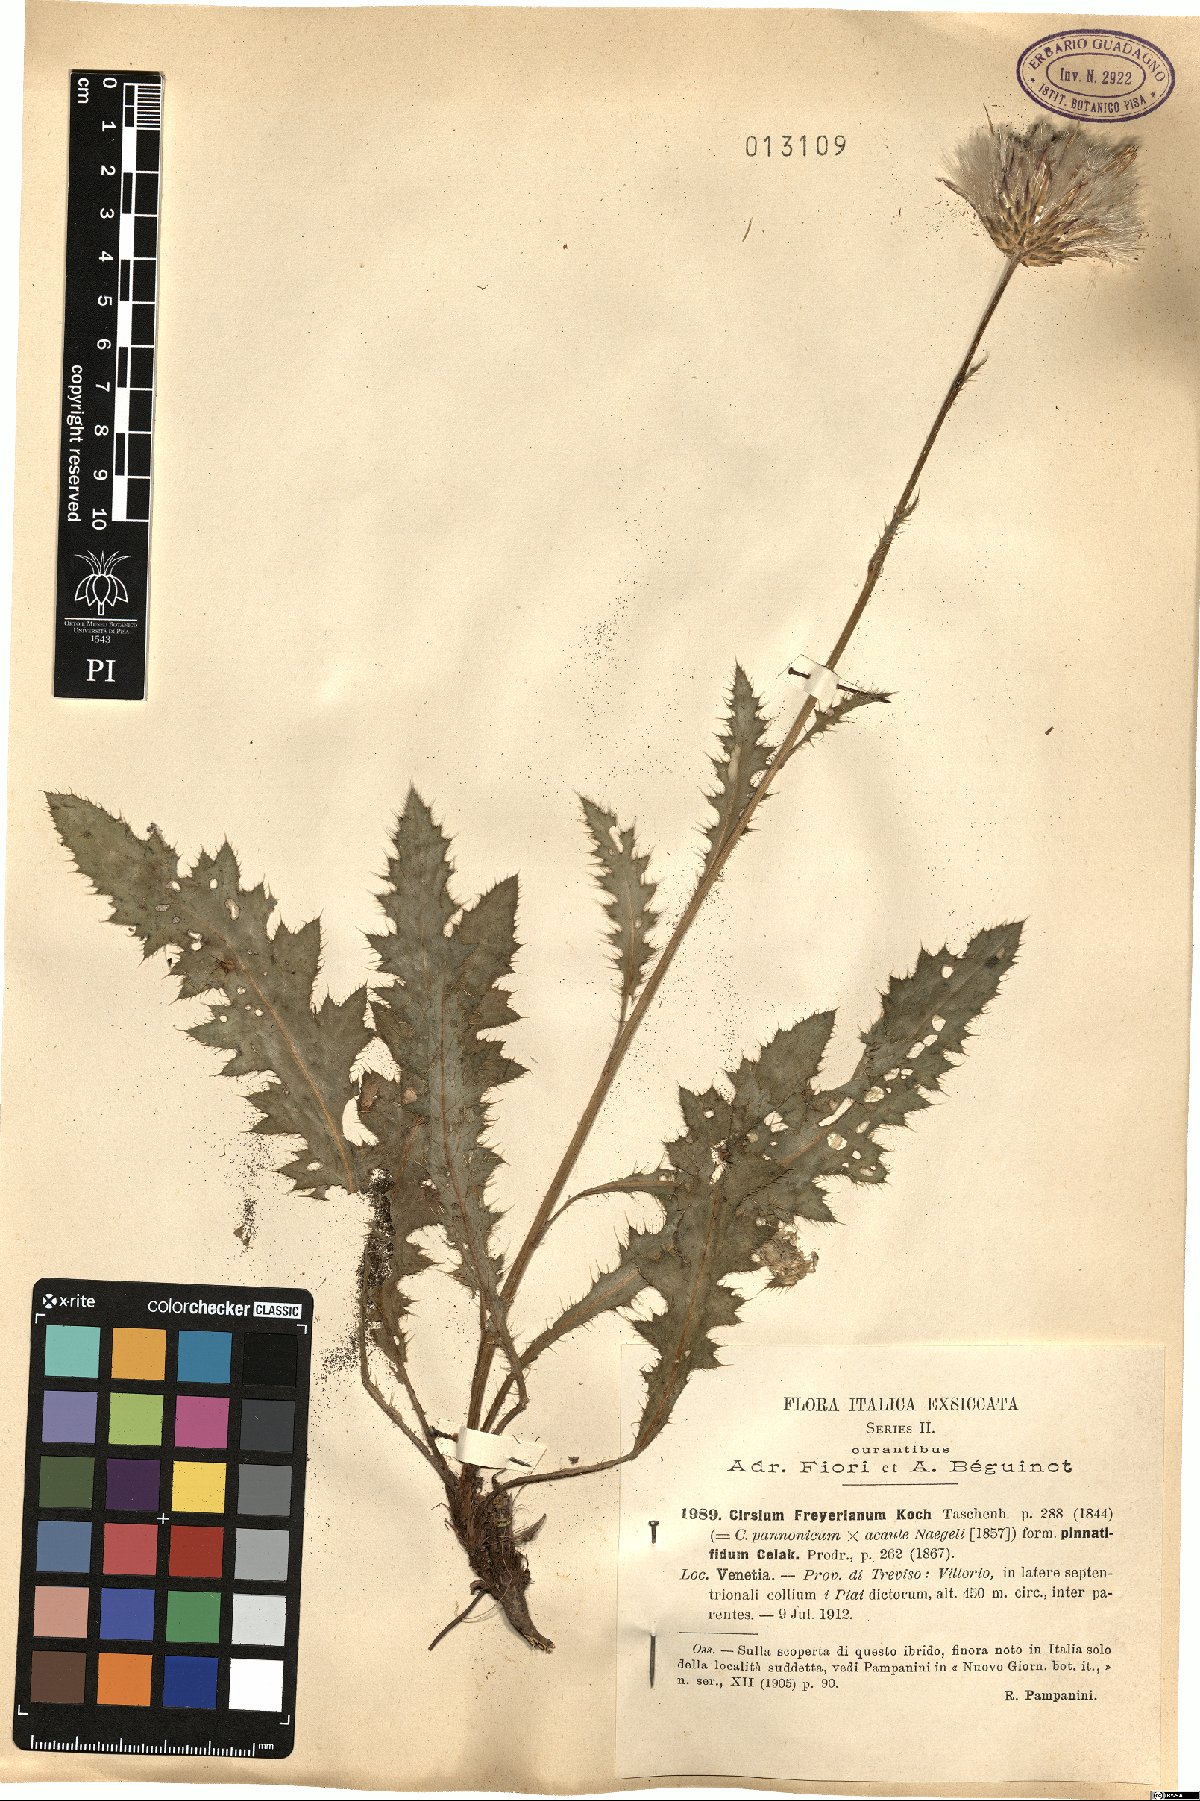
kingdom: Plantae
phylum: Tracheophyta
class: Magnoliopsida
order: Asterales
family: Asteraceae
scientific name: Asteraceae
